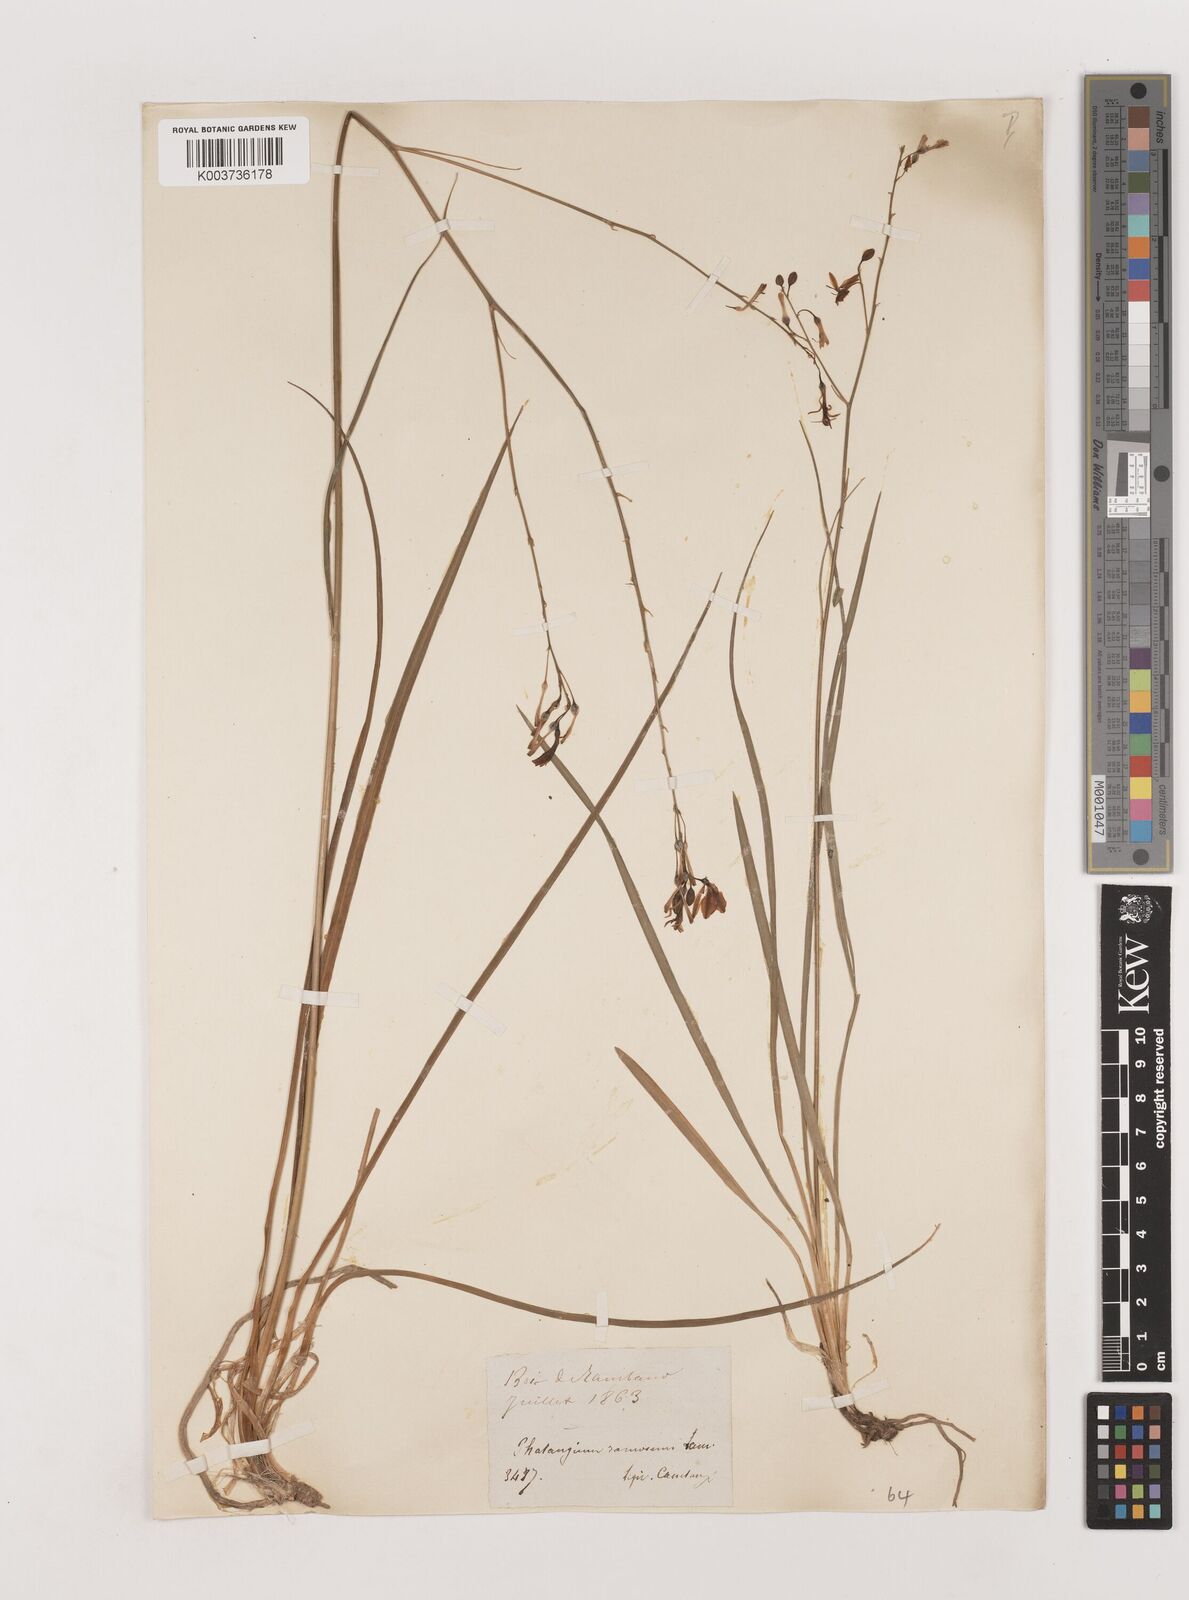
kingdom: Plantae
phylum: Tracheophyta
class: Liliopsida
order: Asparagales
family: Asparagaceae
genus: Anthericum
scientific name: Anthericum ramosum
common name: Branched st. bernard's-lily
